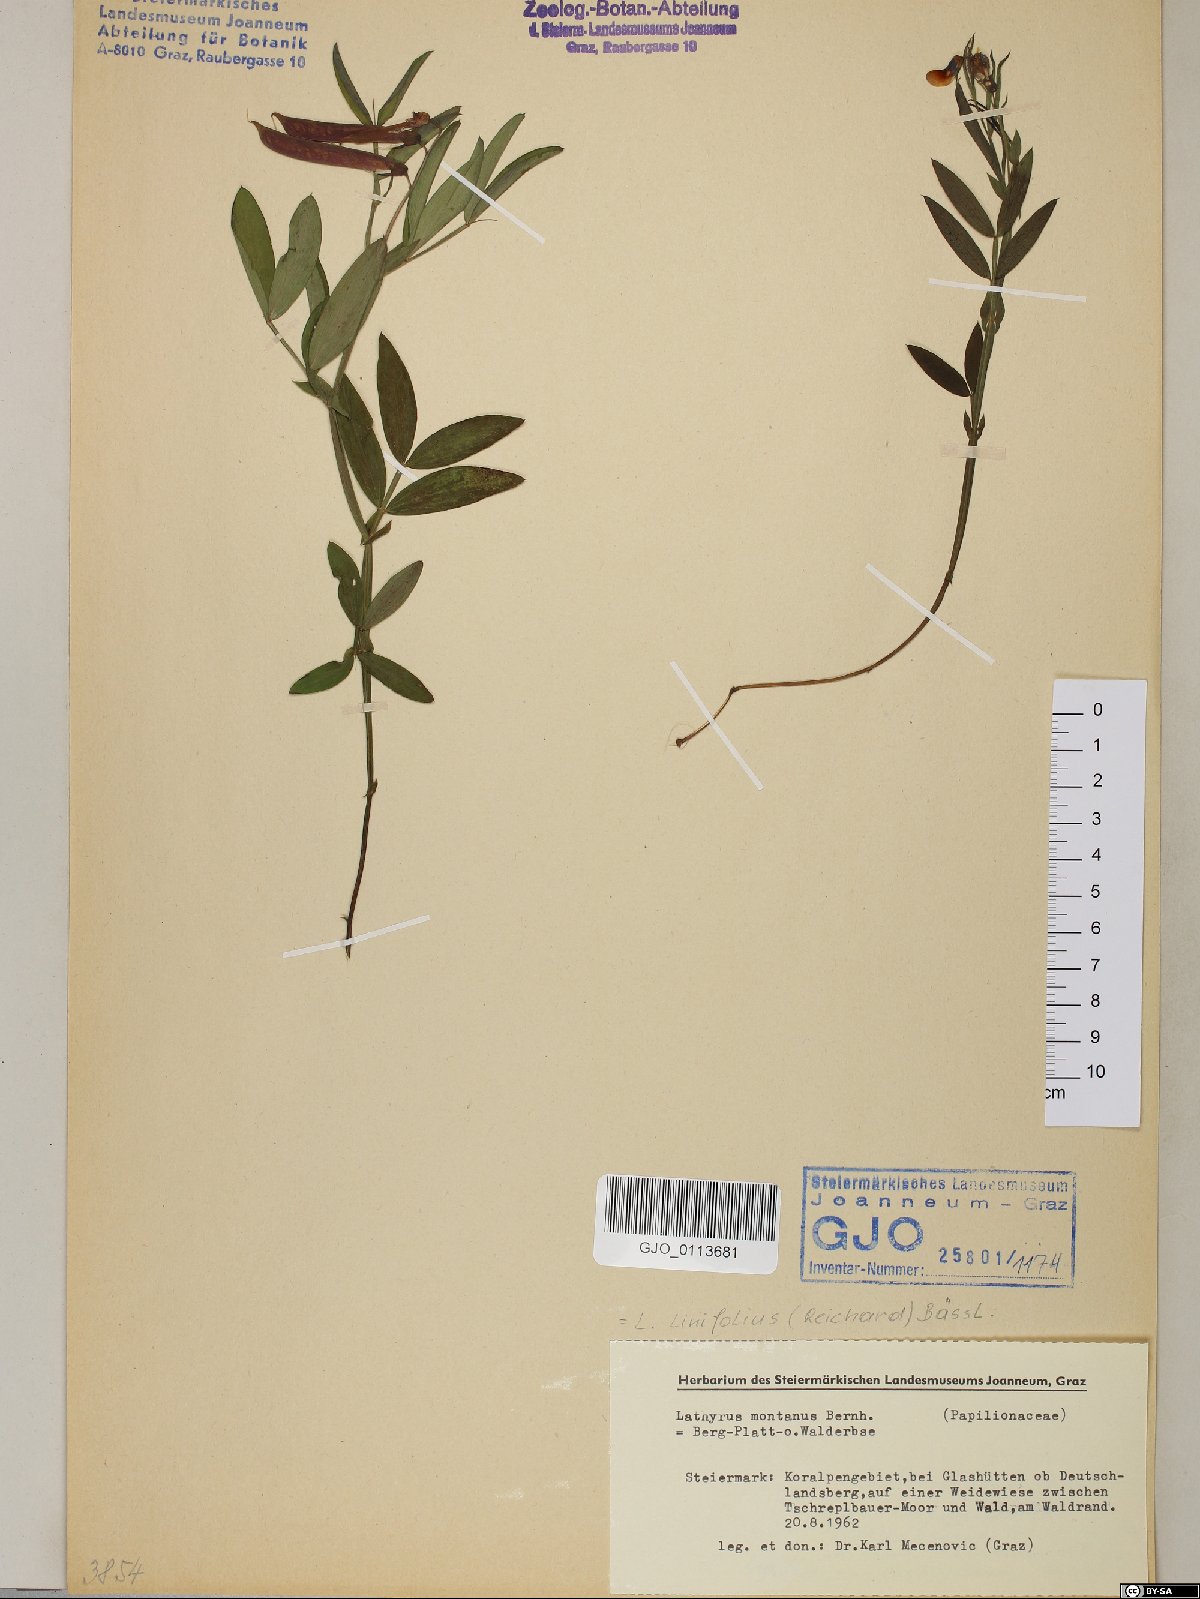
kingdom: Plantae
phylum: Tracheophyta
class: Magnoliopsida
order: Fabales
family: Fabaceae
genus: Lathyrus
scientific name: Lathyrus linifolius
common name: Bitter-vetch
